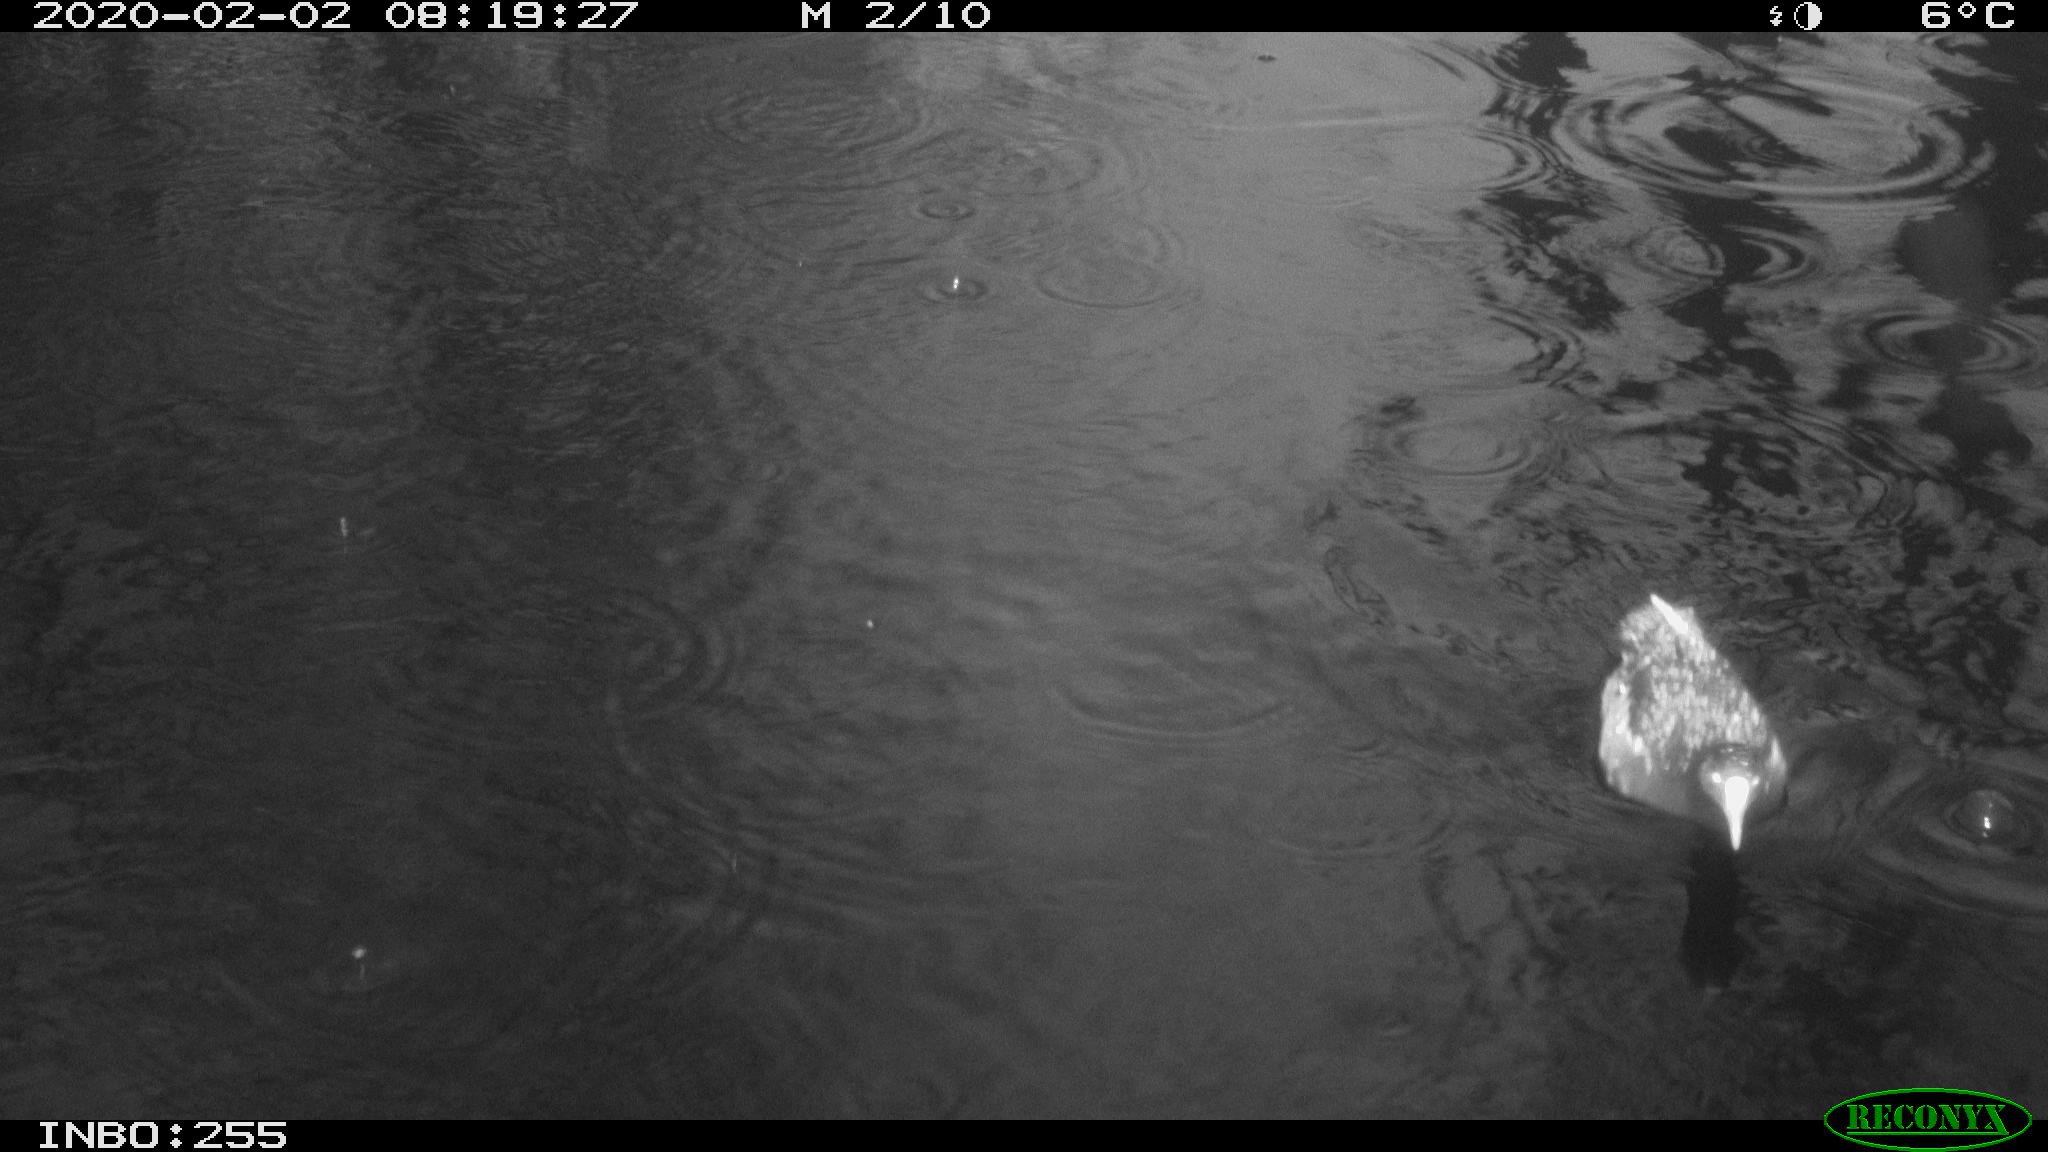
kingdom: Animalia
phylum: Chordata
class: Aves
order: Gruiformes
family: Rallidae
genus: Gallinula
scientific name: Gallinula chloropus
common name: Common moorhen
